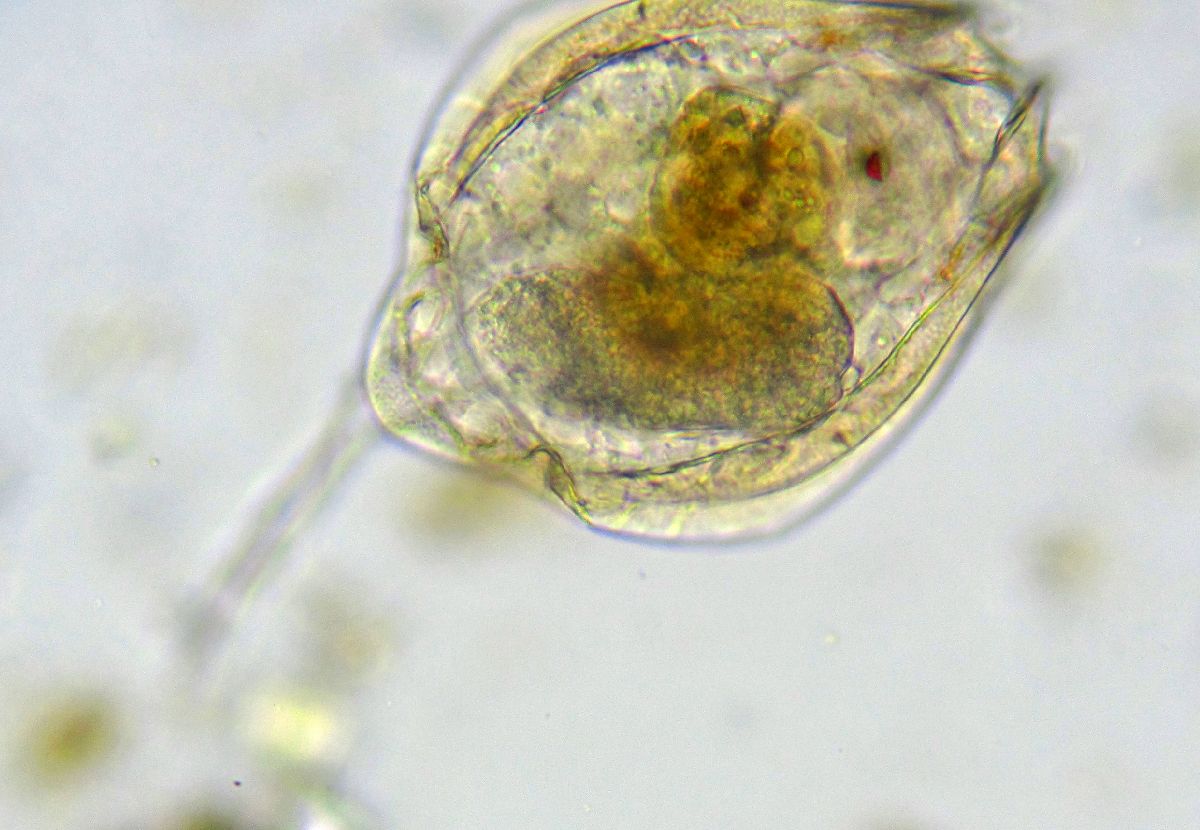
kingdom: Animalia
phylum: Rotifera
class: Eurotatoria
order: Ploima
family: Lecanidae
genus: Lecane
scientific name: Lecane
